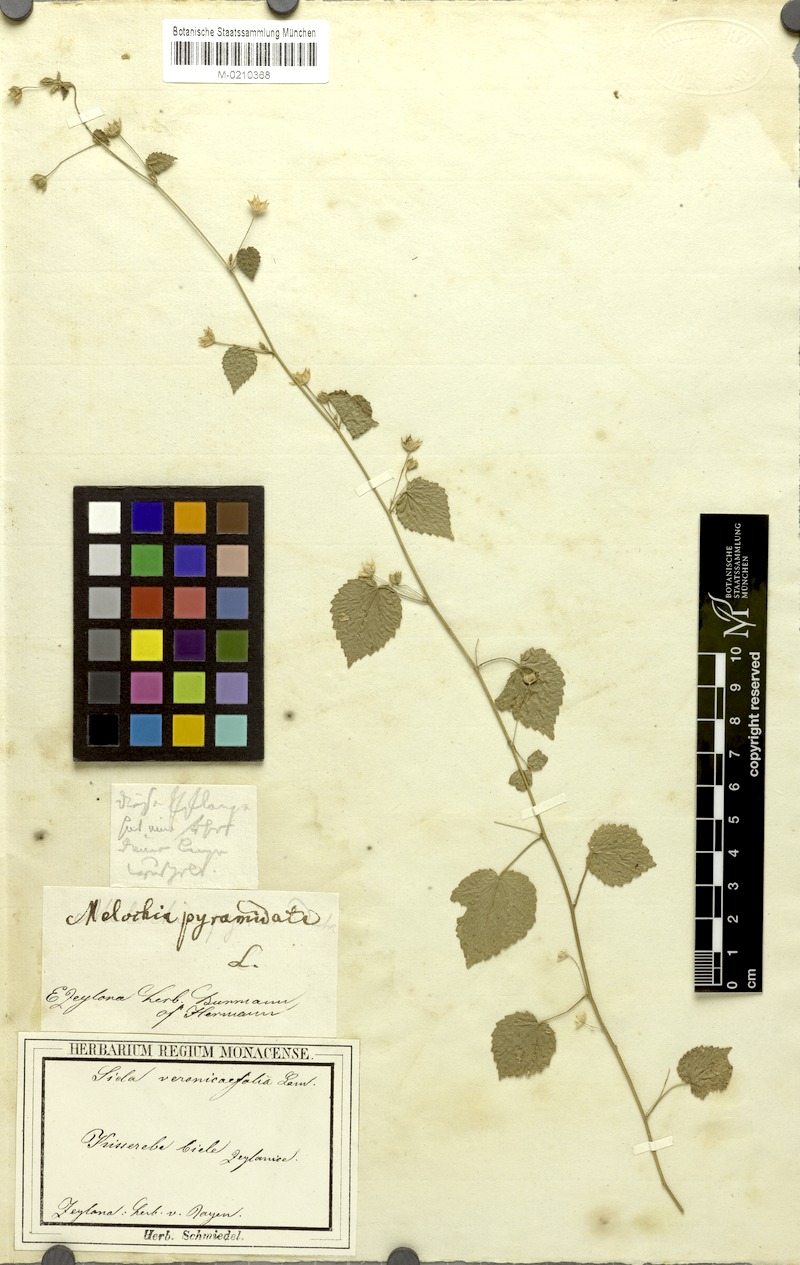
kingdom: Plantae
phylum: Tracheophyta
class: Magnoliopsida
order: Malvales
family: Malvaceae
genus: Sida
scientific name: Sida cordata
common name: Long-stalk sida
